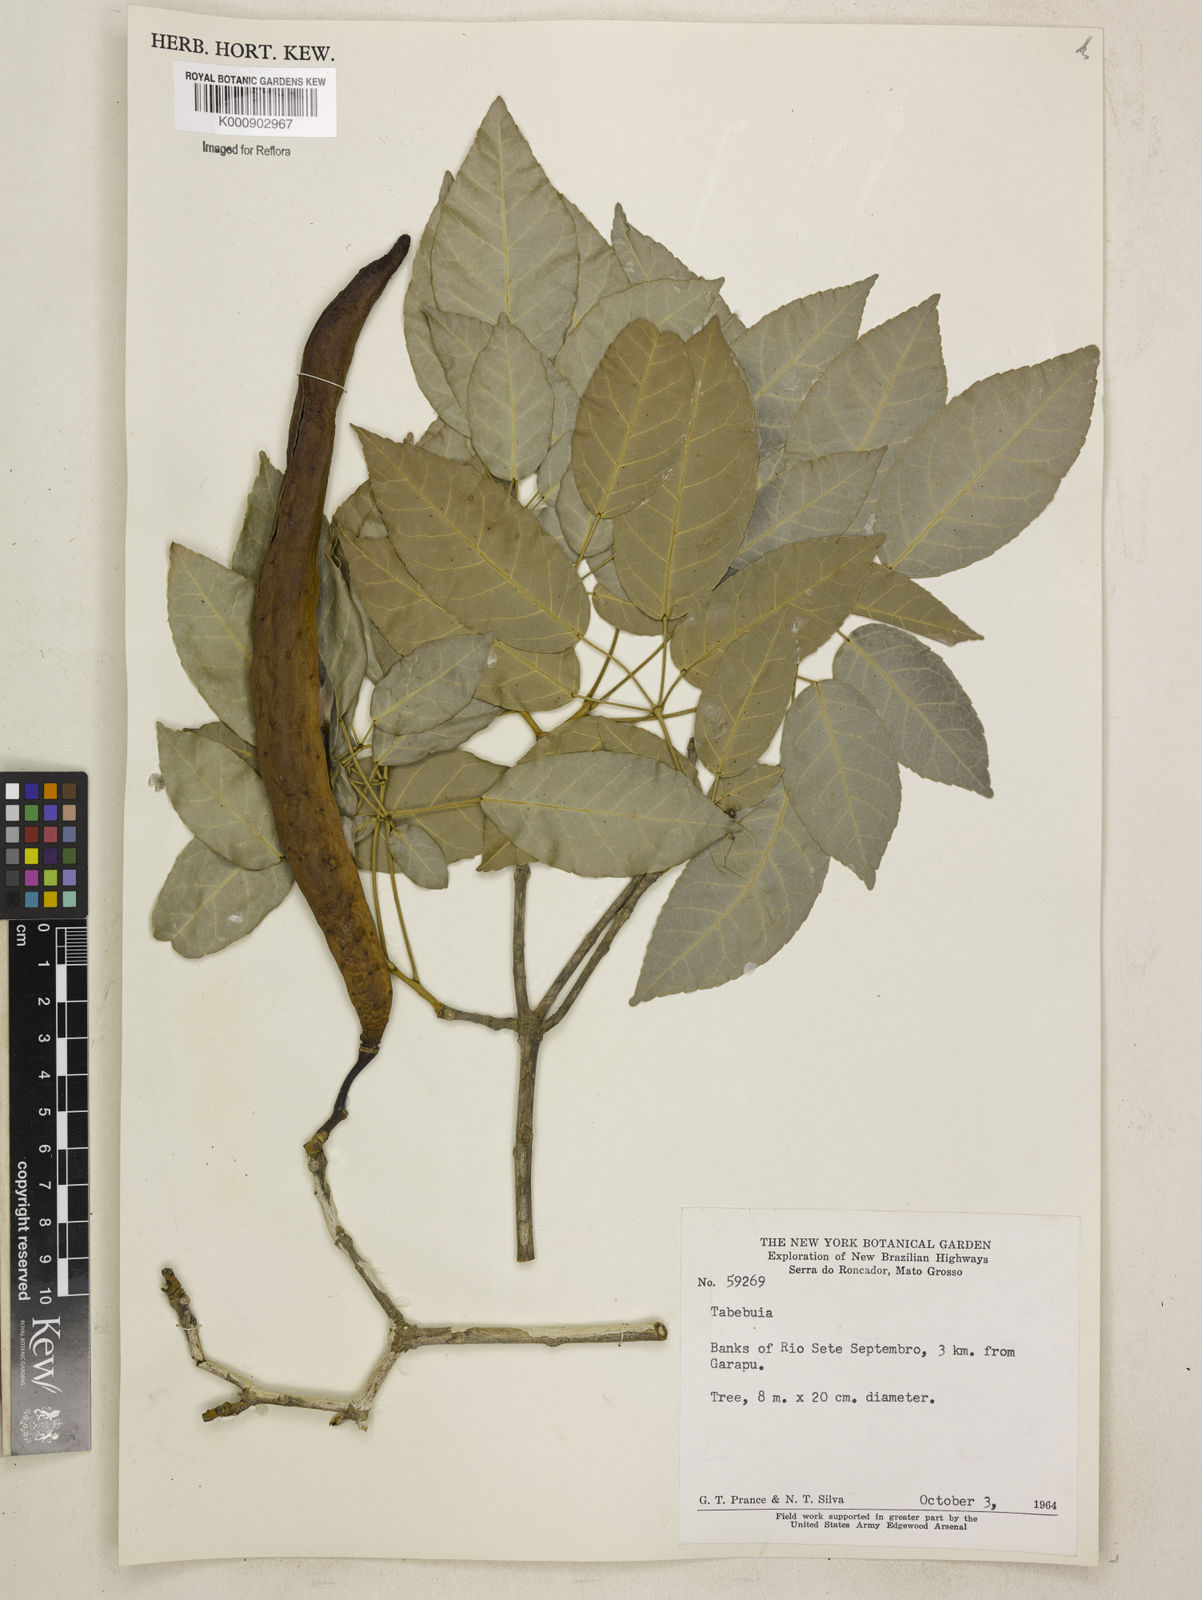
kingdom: Plantae
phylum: Tracheophyta
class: Magnoliopsida
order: Lamiales
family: Bignoniaceae
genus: Tabebuia
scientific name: Tabebuia
